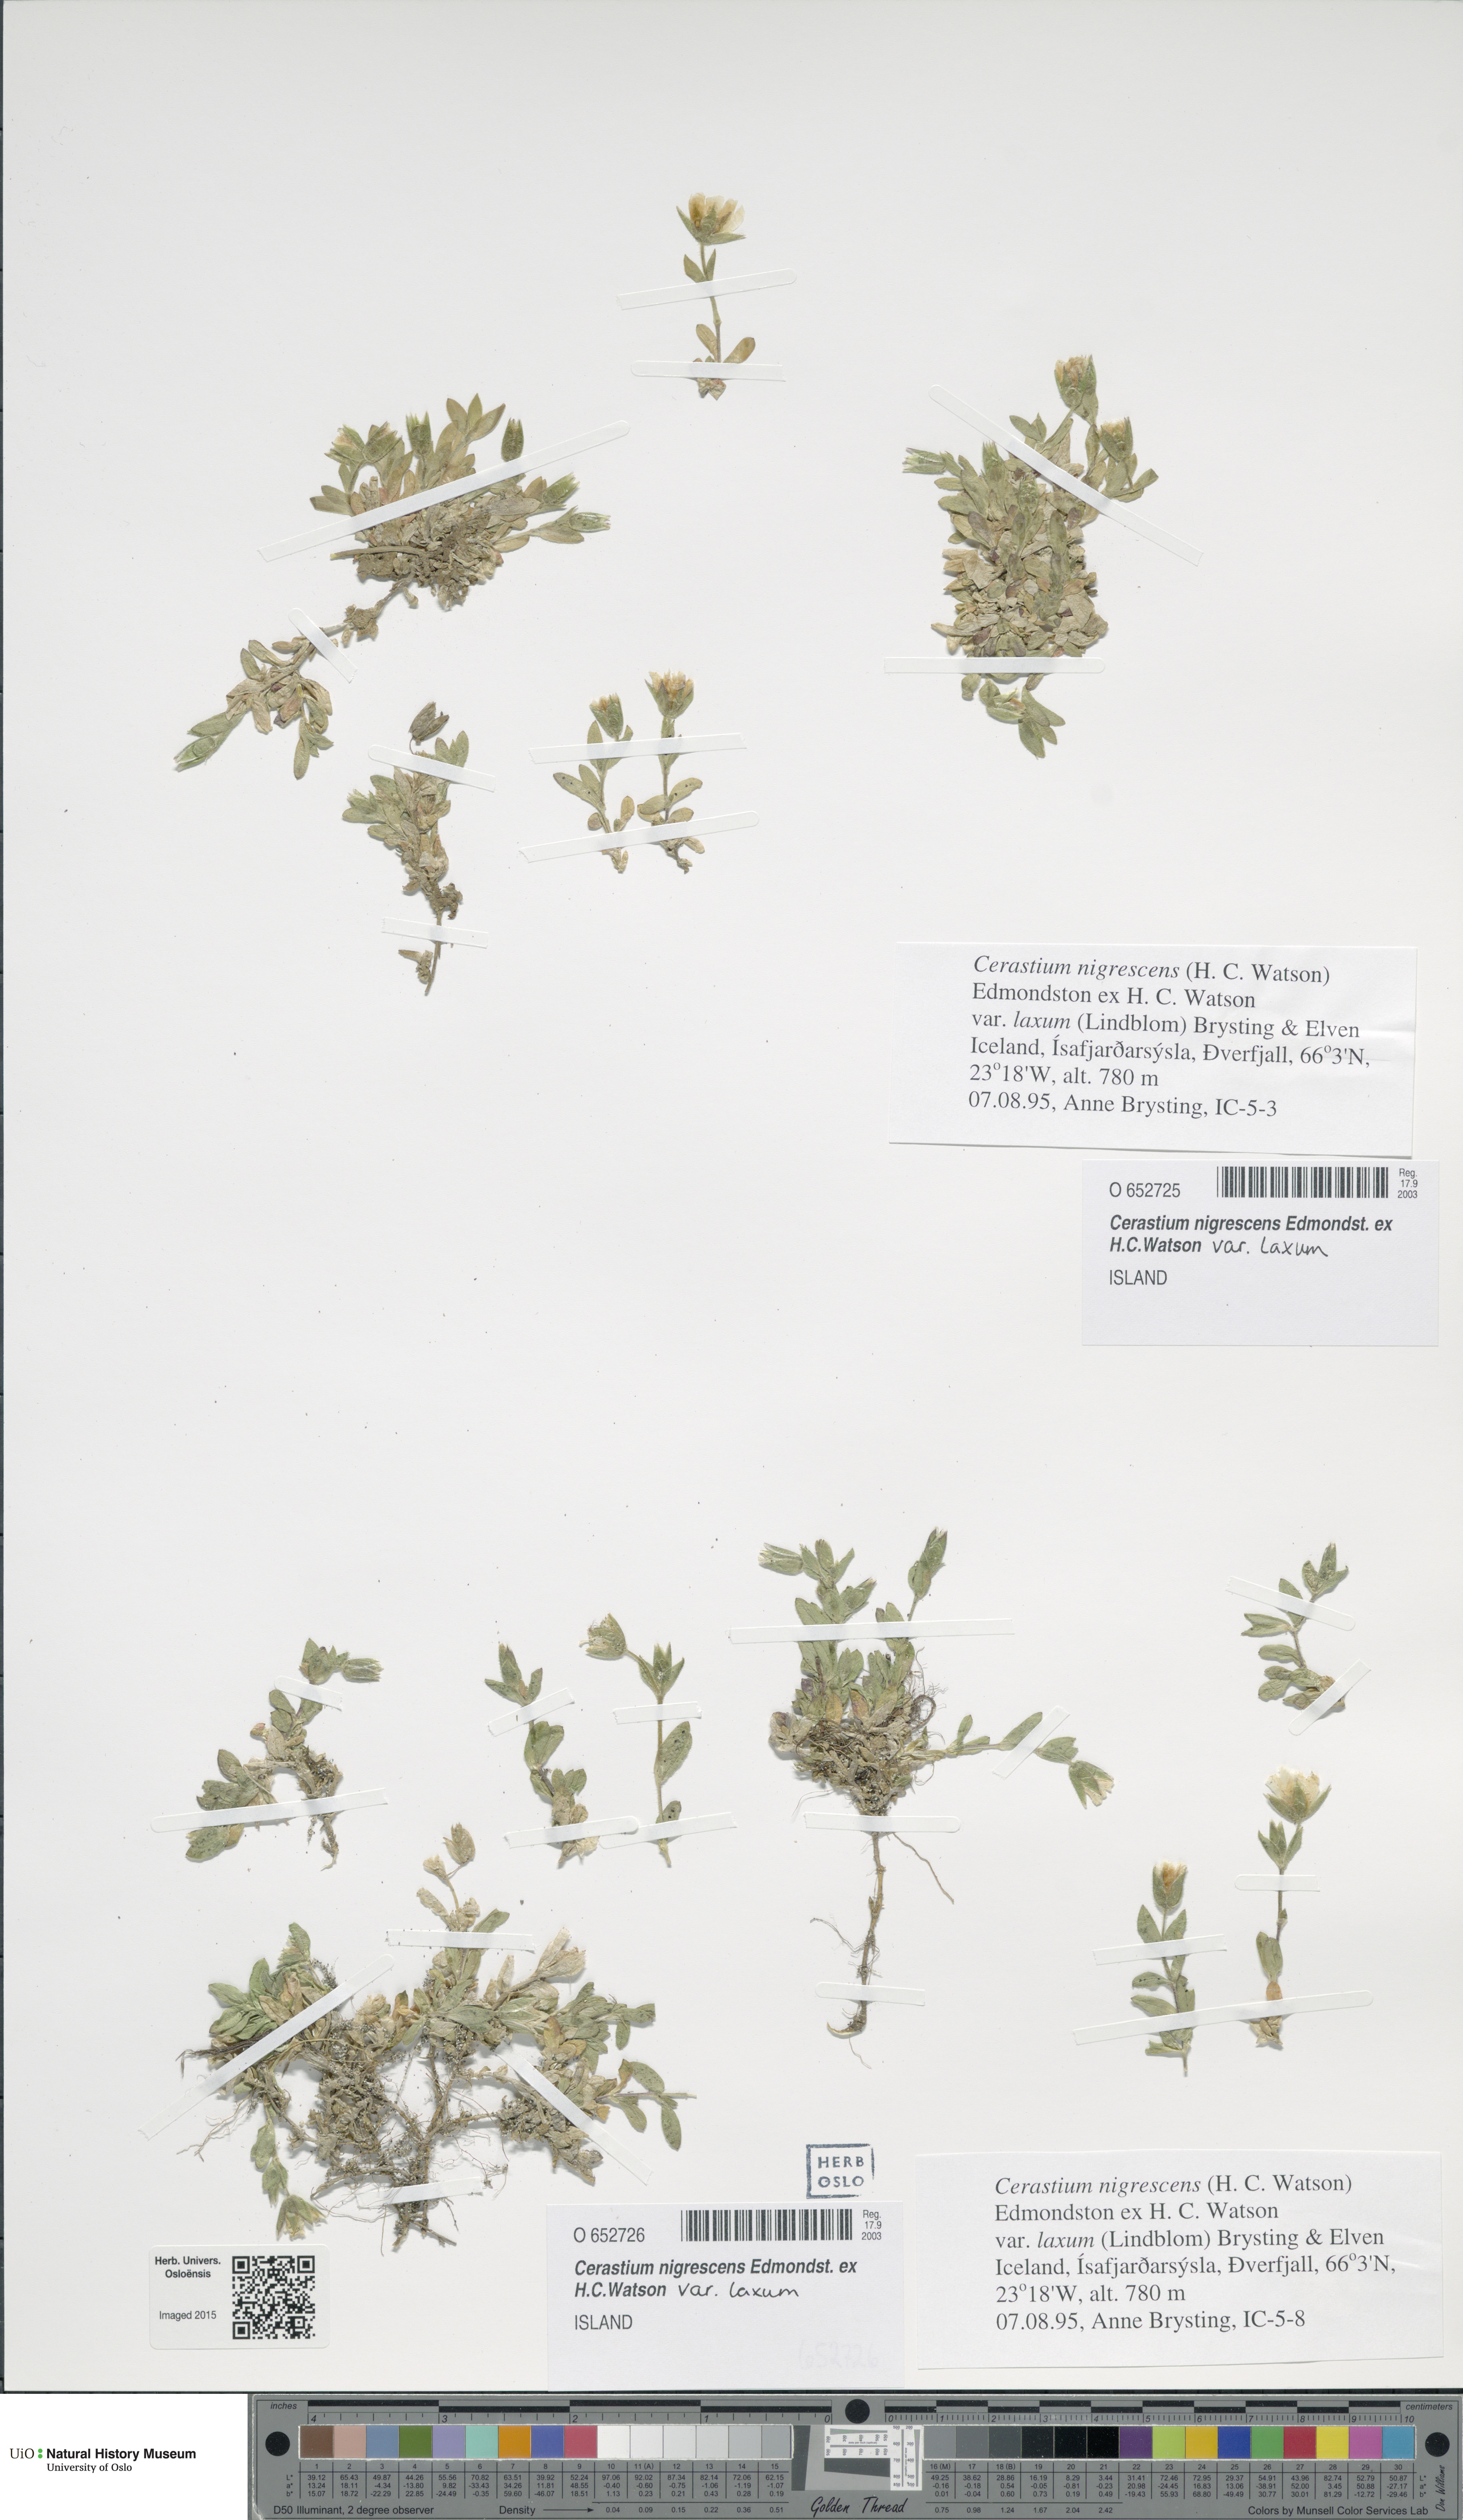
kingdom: Plantae
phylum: Tracheophyta
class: Magnoliopsida
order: Caryophyllales
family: Caryophyllaceae
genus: Cerastium
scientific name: Cerastium nigrescens
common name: Shetland mouse-ear
